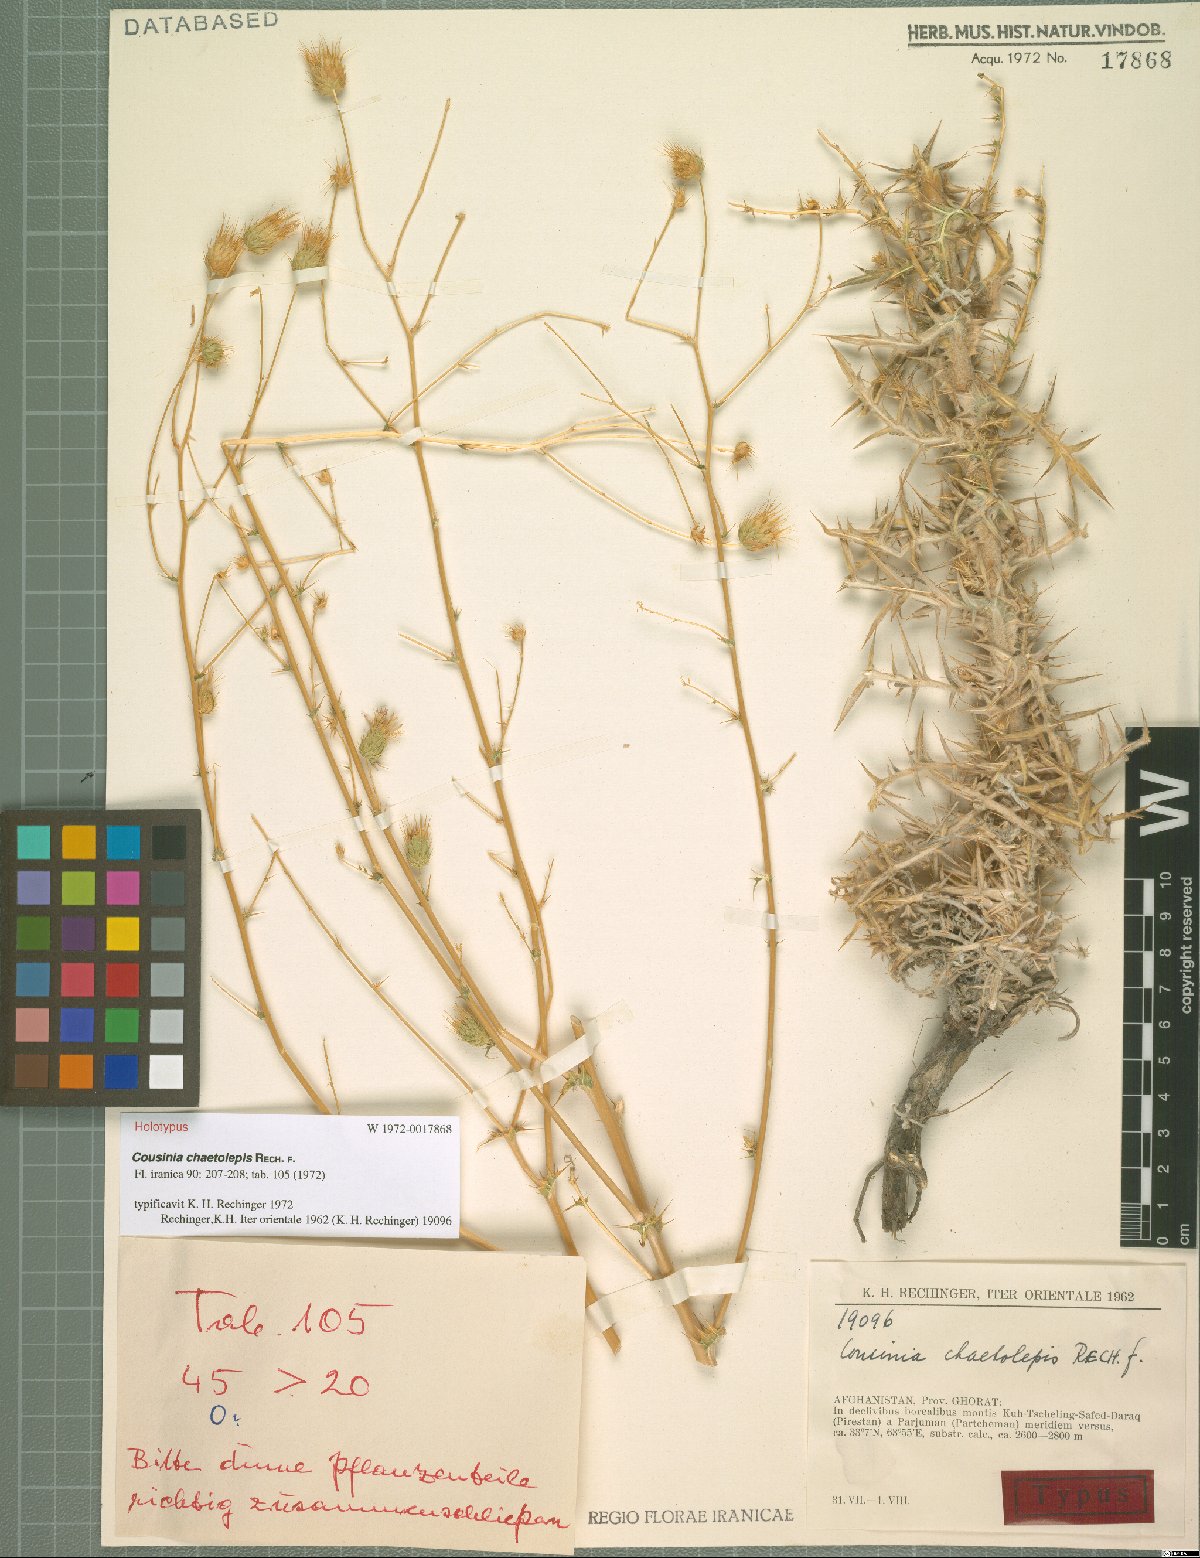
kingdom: Plantae
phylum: Tracheophyta
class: Magnoliopsida
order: Asterales
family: Asteraceae
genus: Cousinia
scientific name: Cousinia chaetolepis
